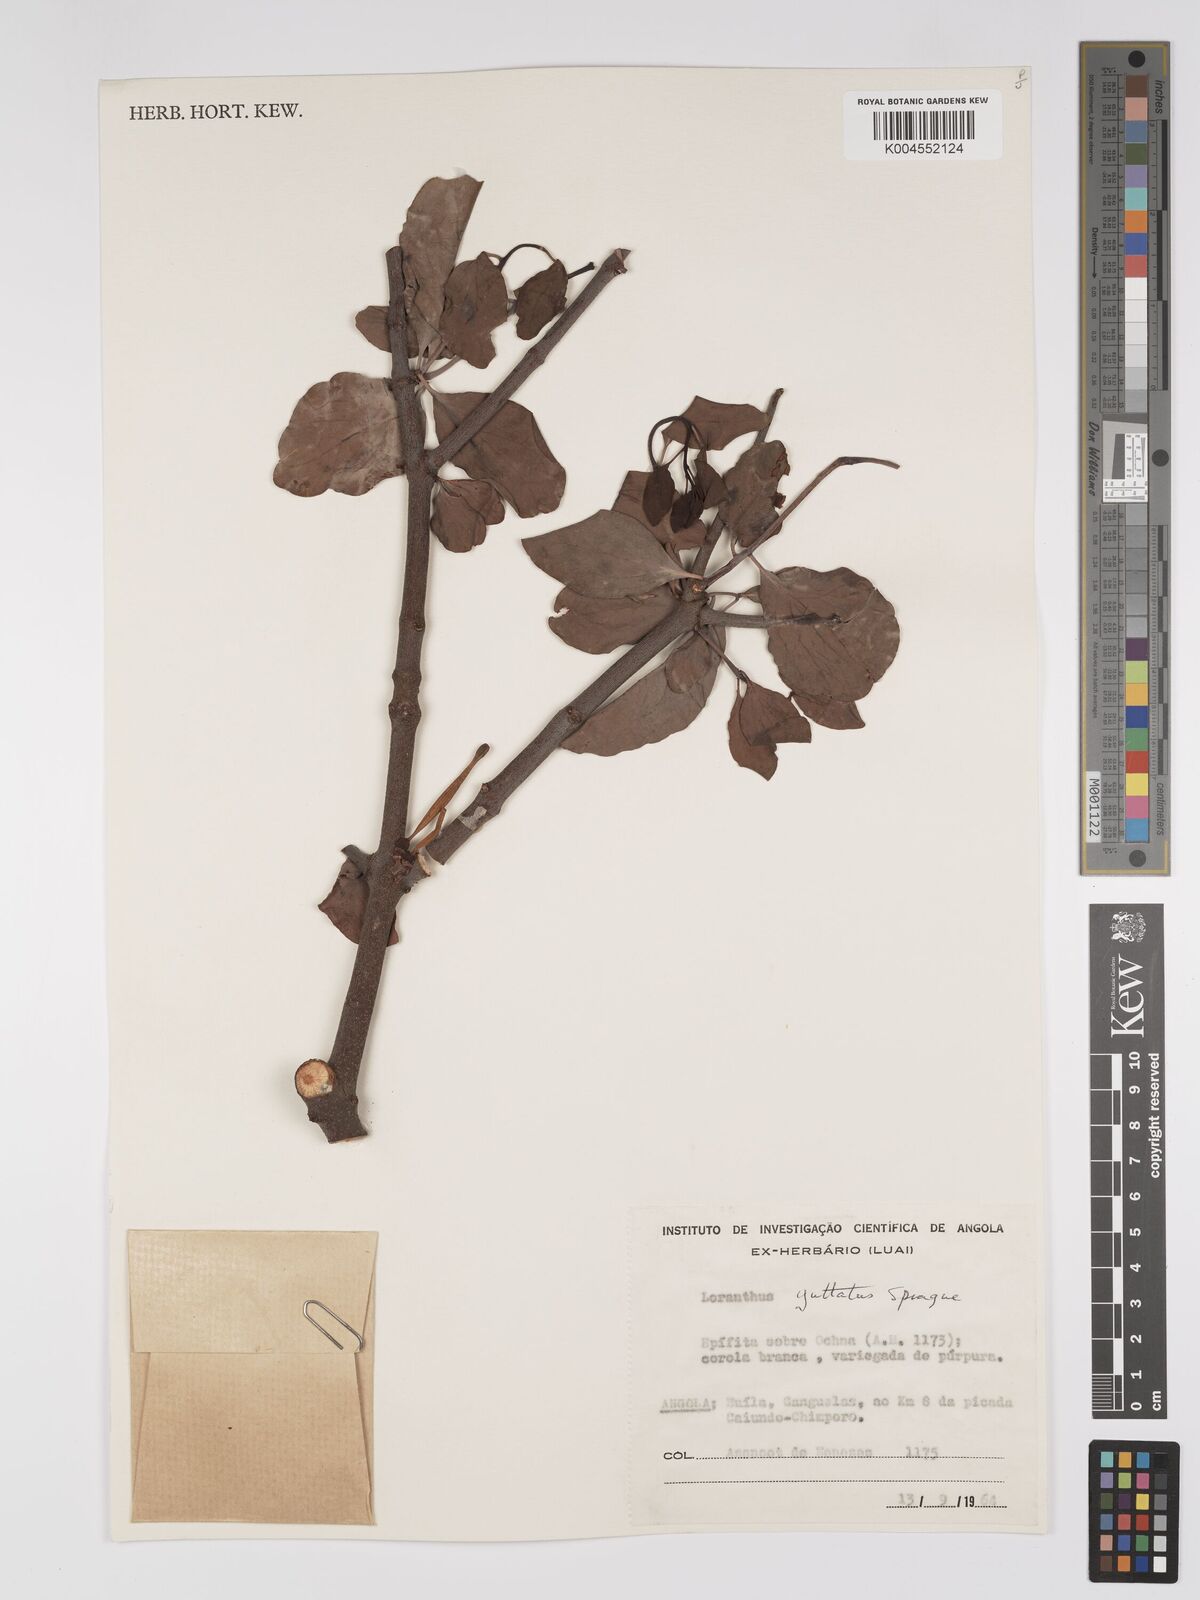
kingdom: Plantae
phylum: Tracheophyta
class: Magnoliopsida
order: Santalales
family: Loranthaceae
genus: Tapinanthus
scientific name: Tapinanthus forbesii
